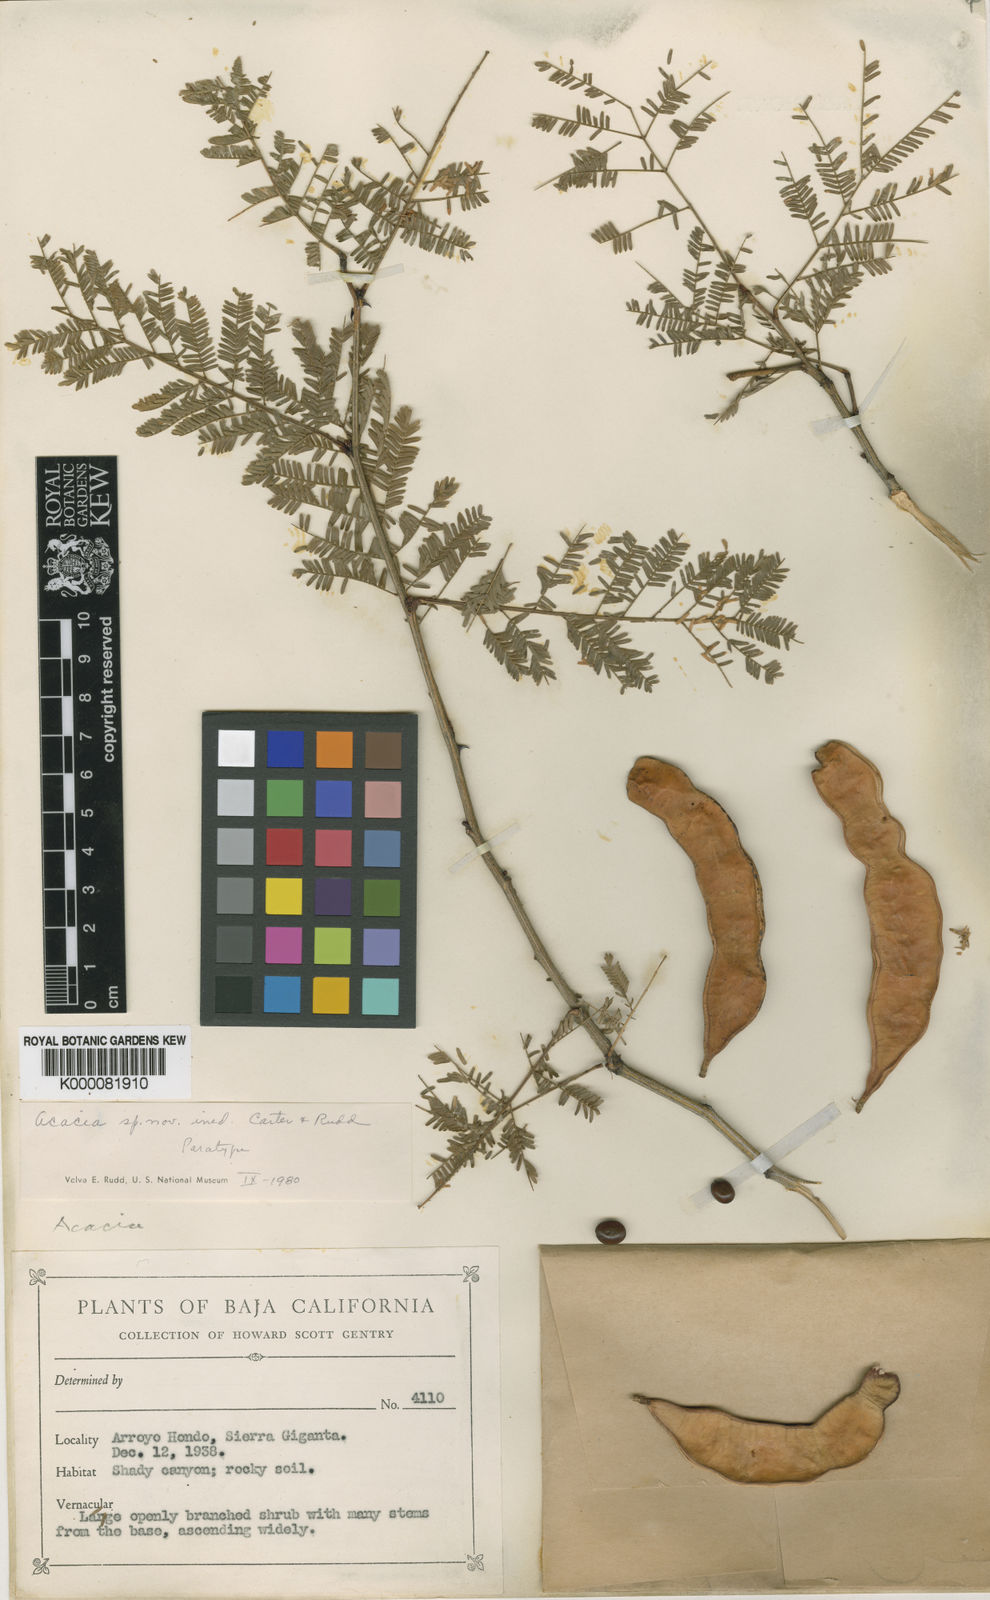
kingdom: Plantae
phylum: Tracheophyta
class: Magnoliopsida
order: Fabales
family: Fabaceae
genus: Senegalia
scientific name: Senegalia kelloggiana
